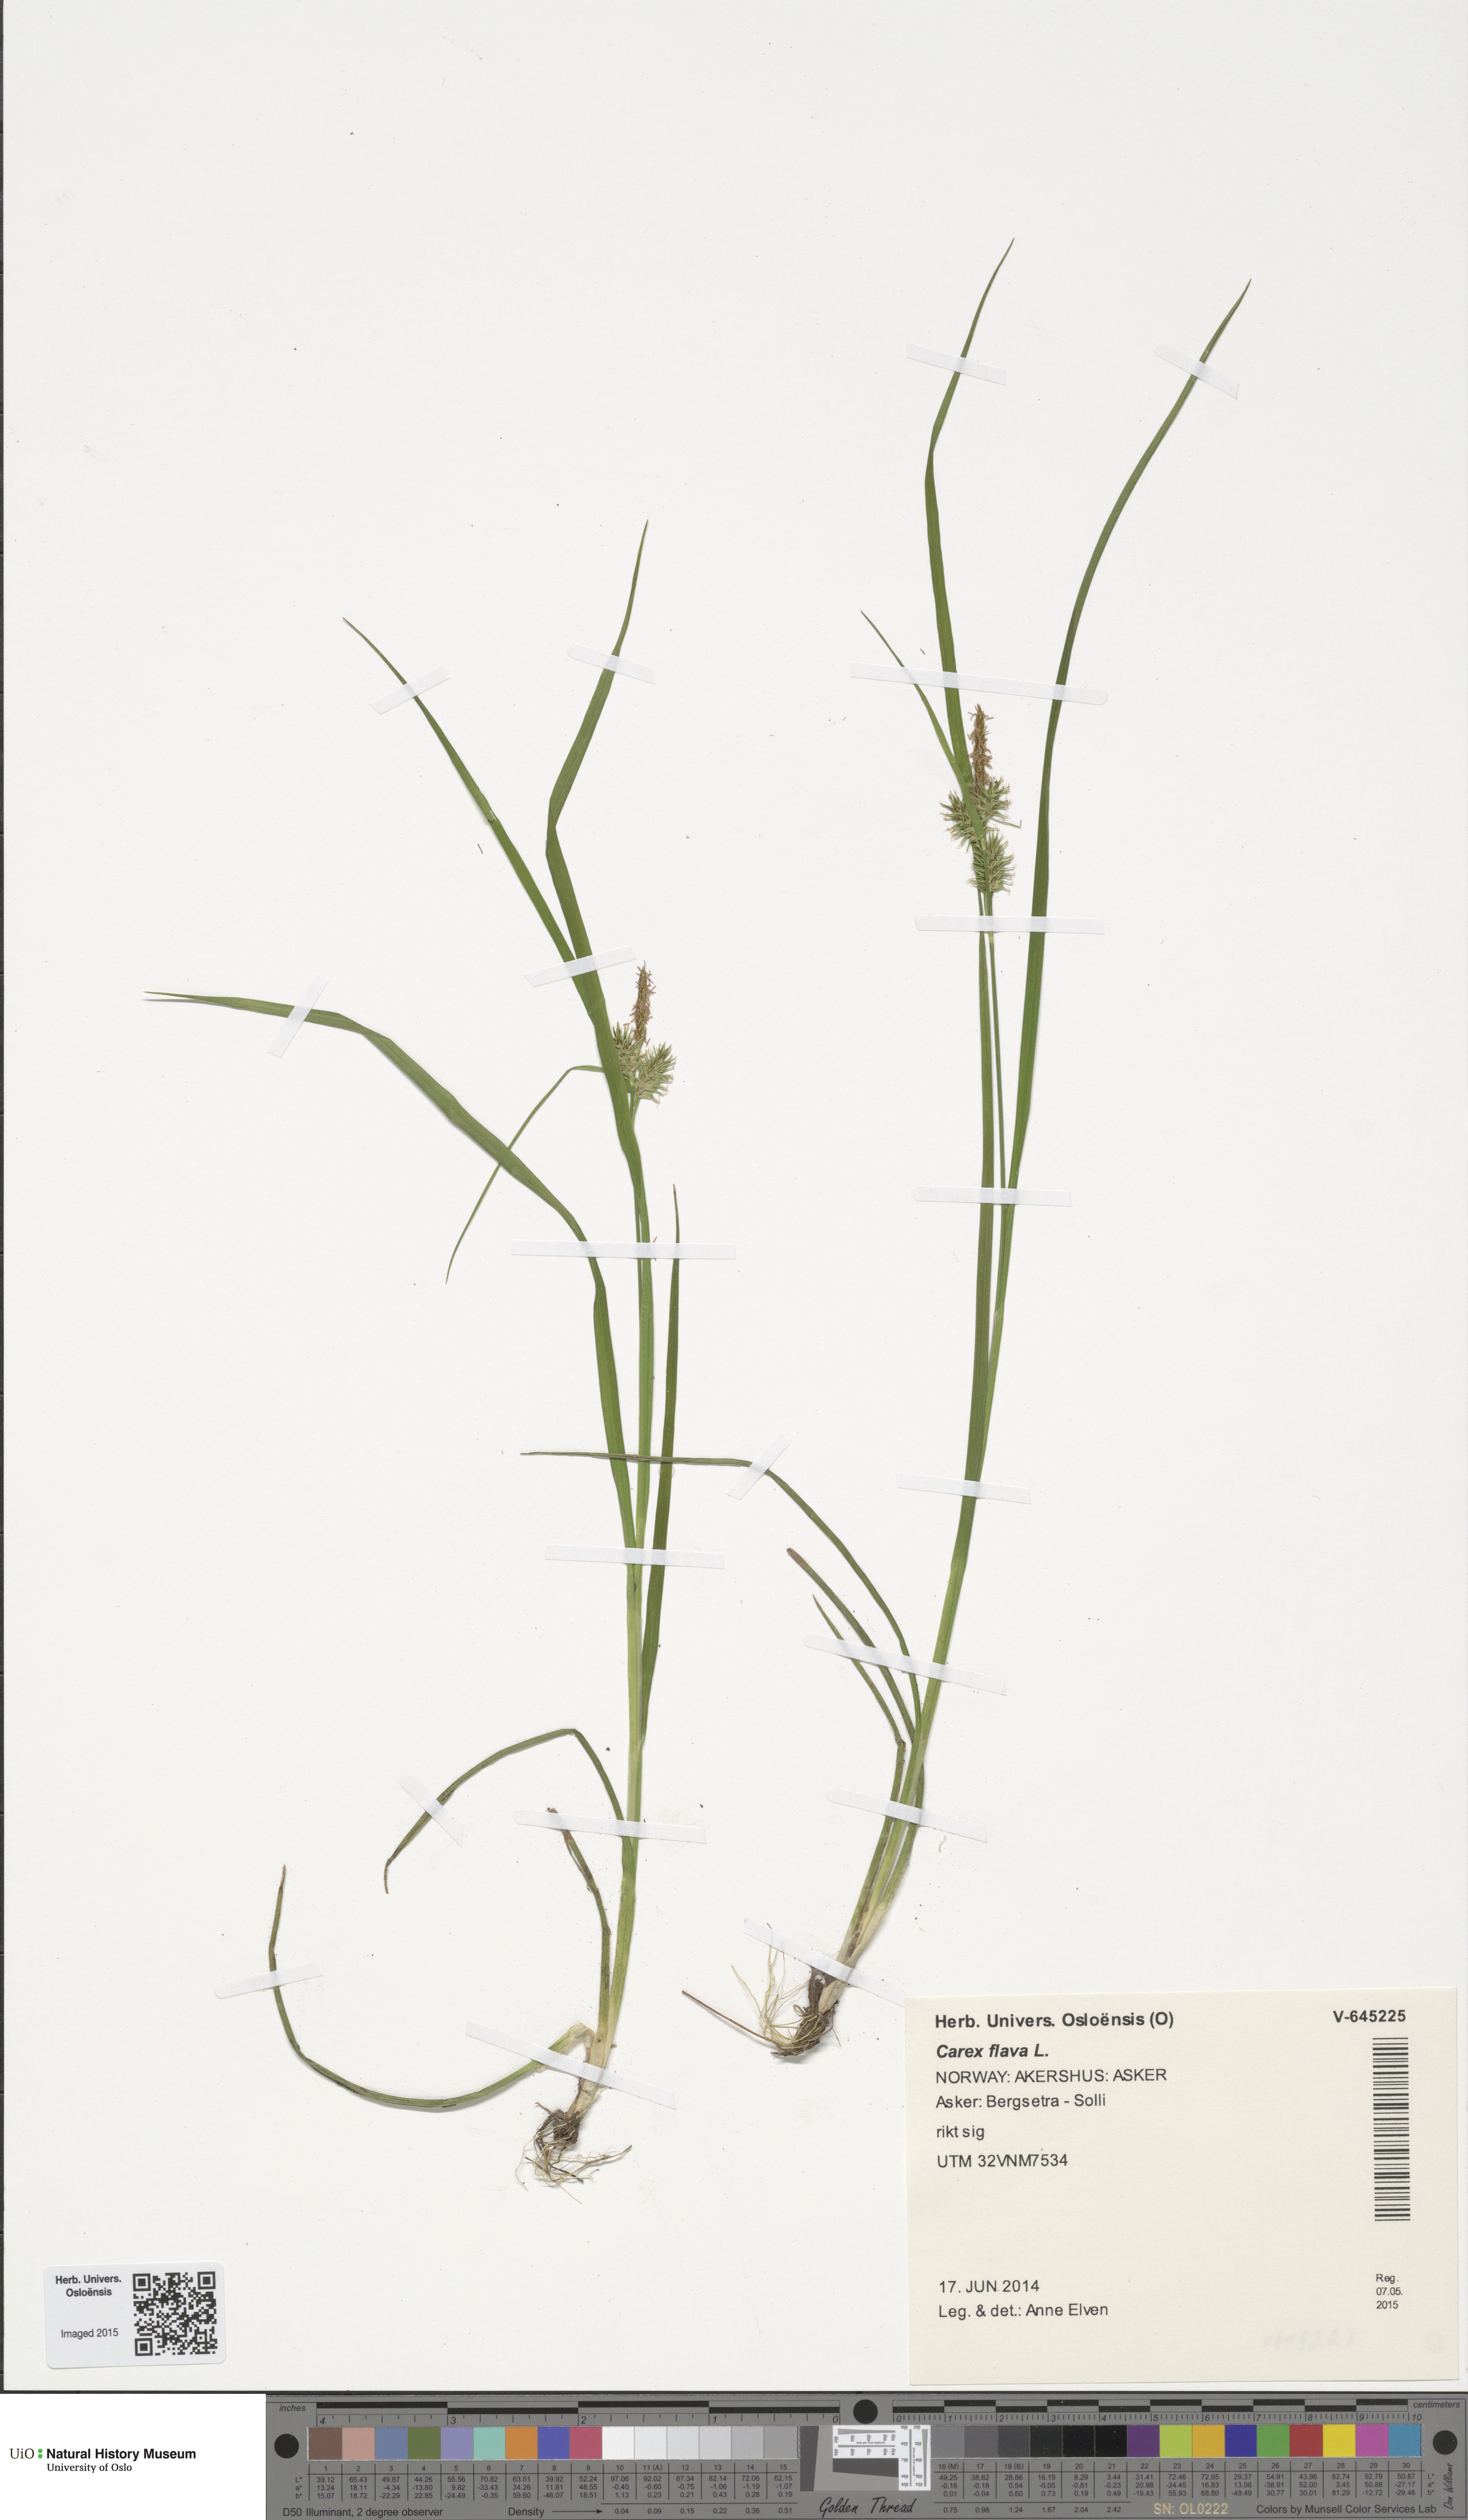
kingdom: Plantae
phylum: Tracheophyta
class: Liliopsida
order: Poales
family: Cyperaceae
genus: Carex
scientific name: Carex flava
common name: Large yellow-sedge
